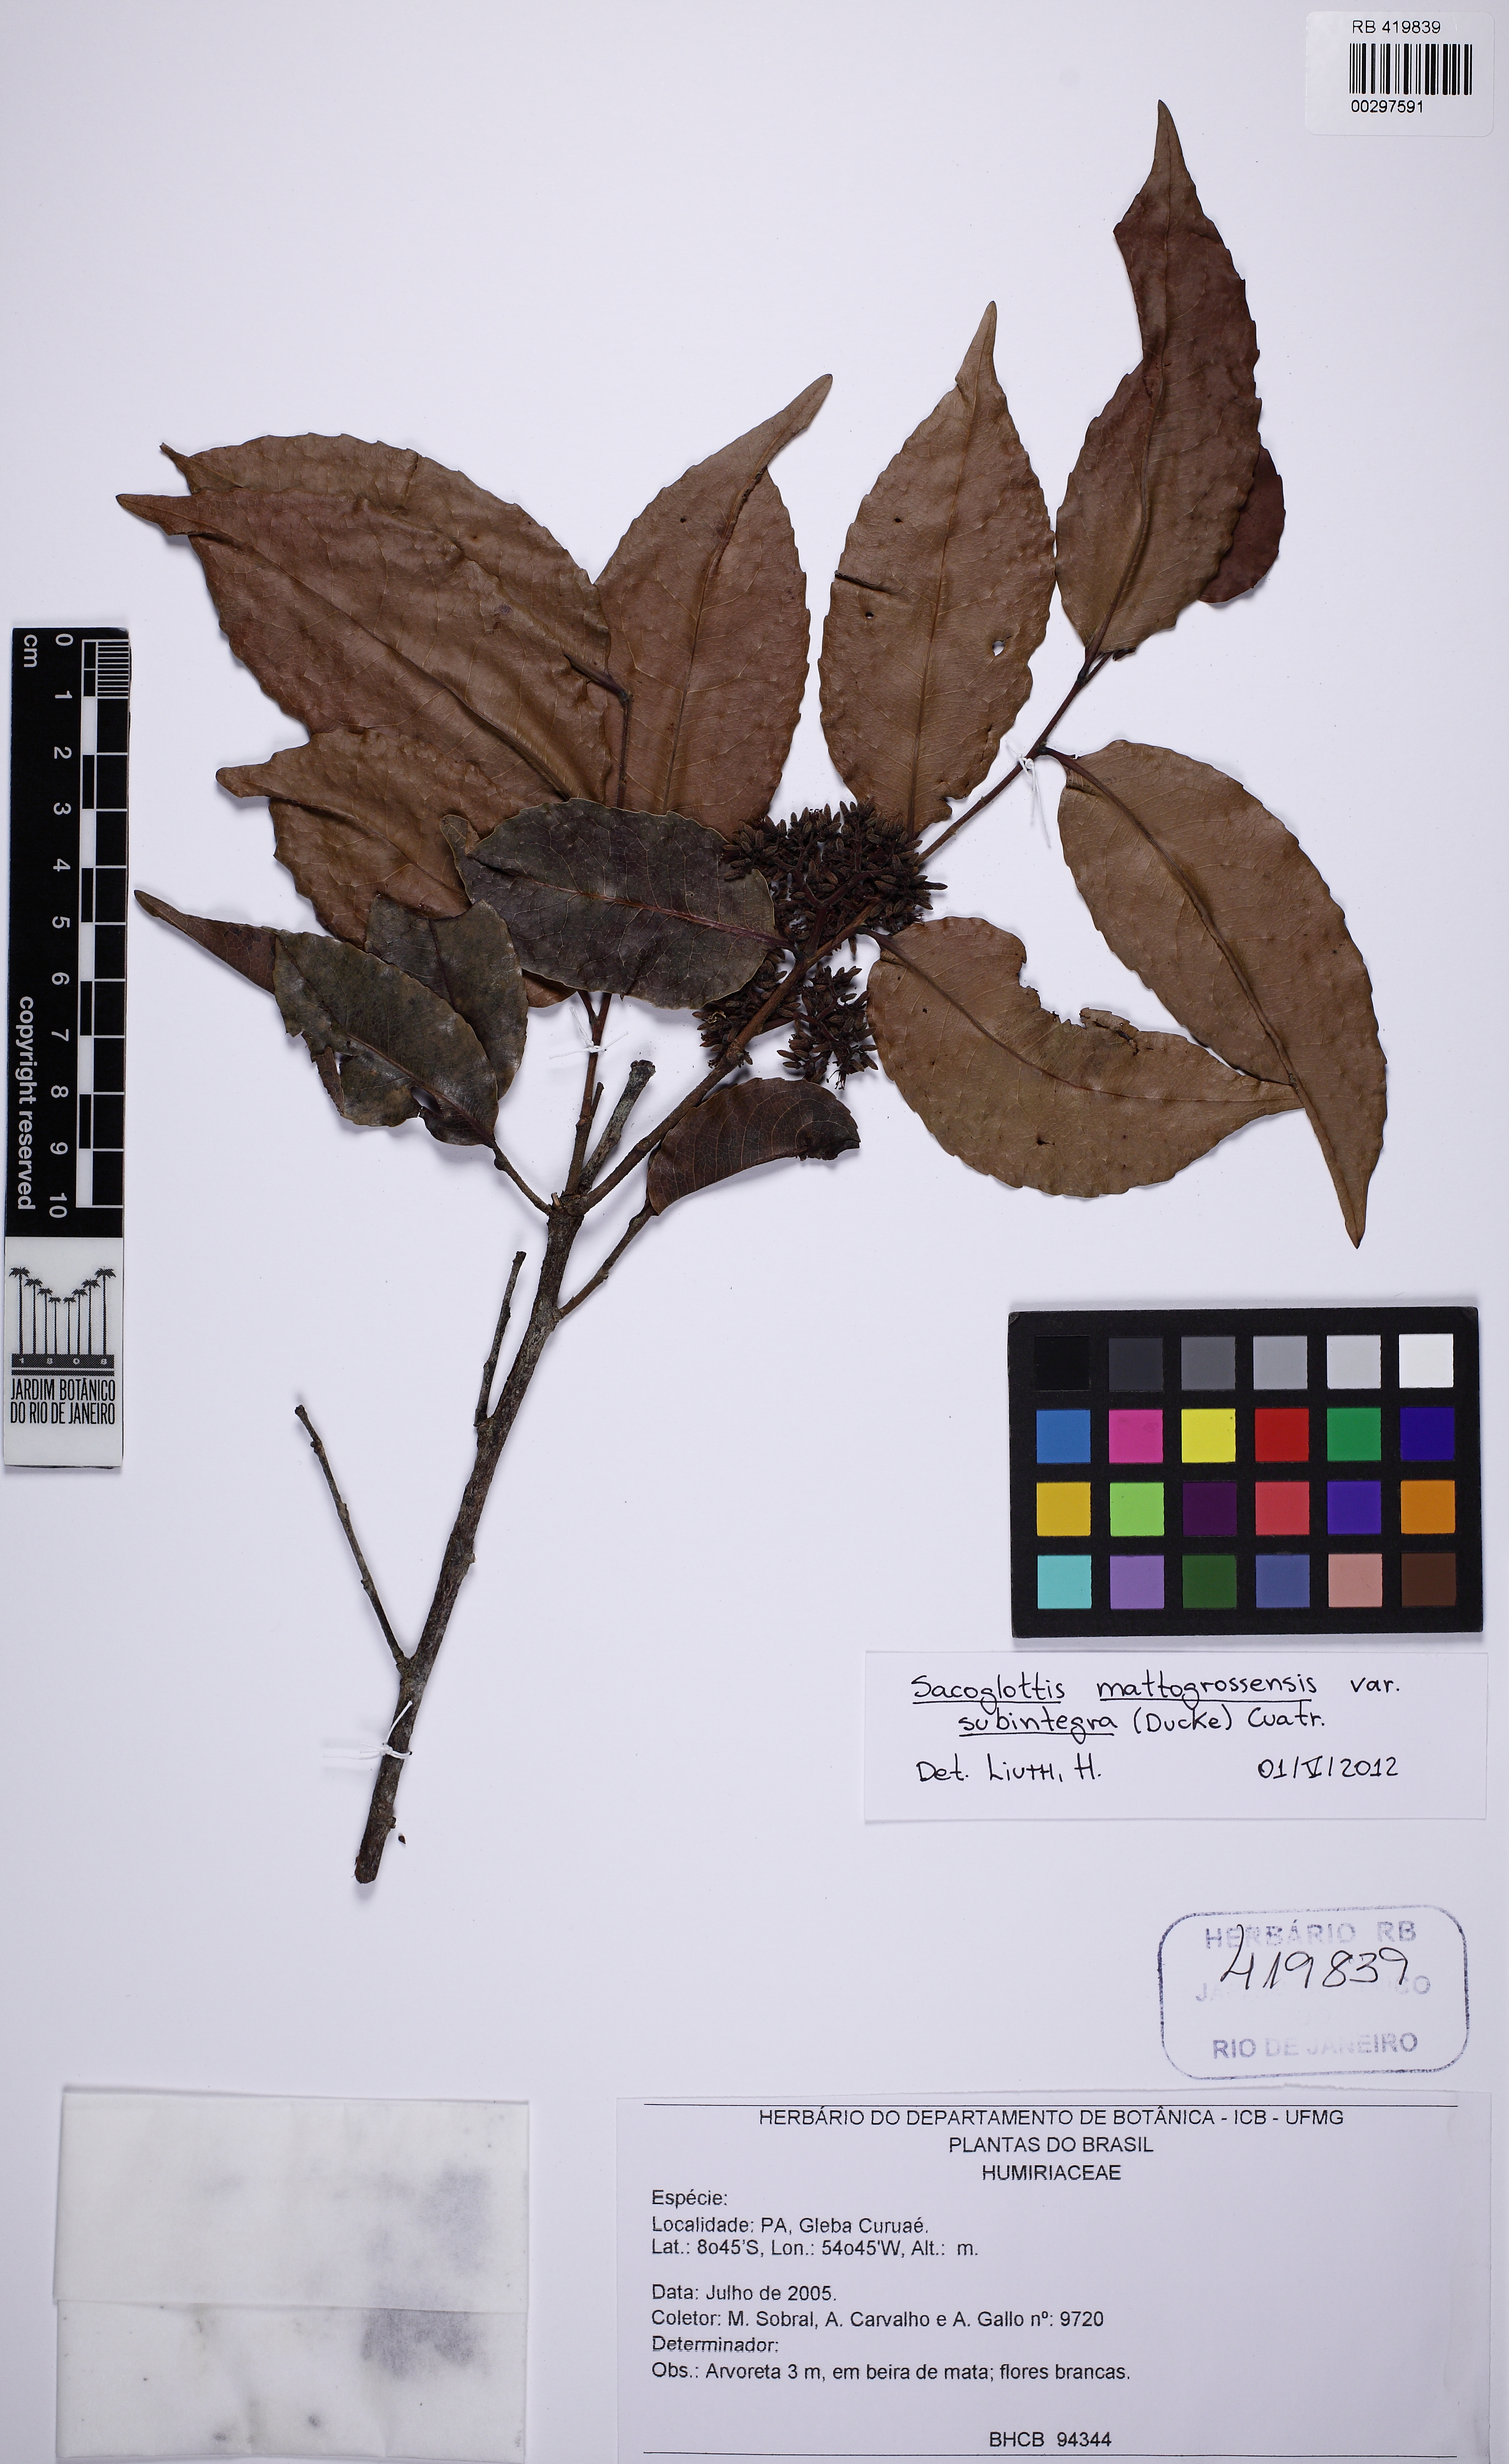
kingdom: Plantae
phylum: Tracheophyta
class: Magnoliopsida
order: Malpighiales
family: Humiriaceae
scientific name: Humiriaceae
